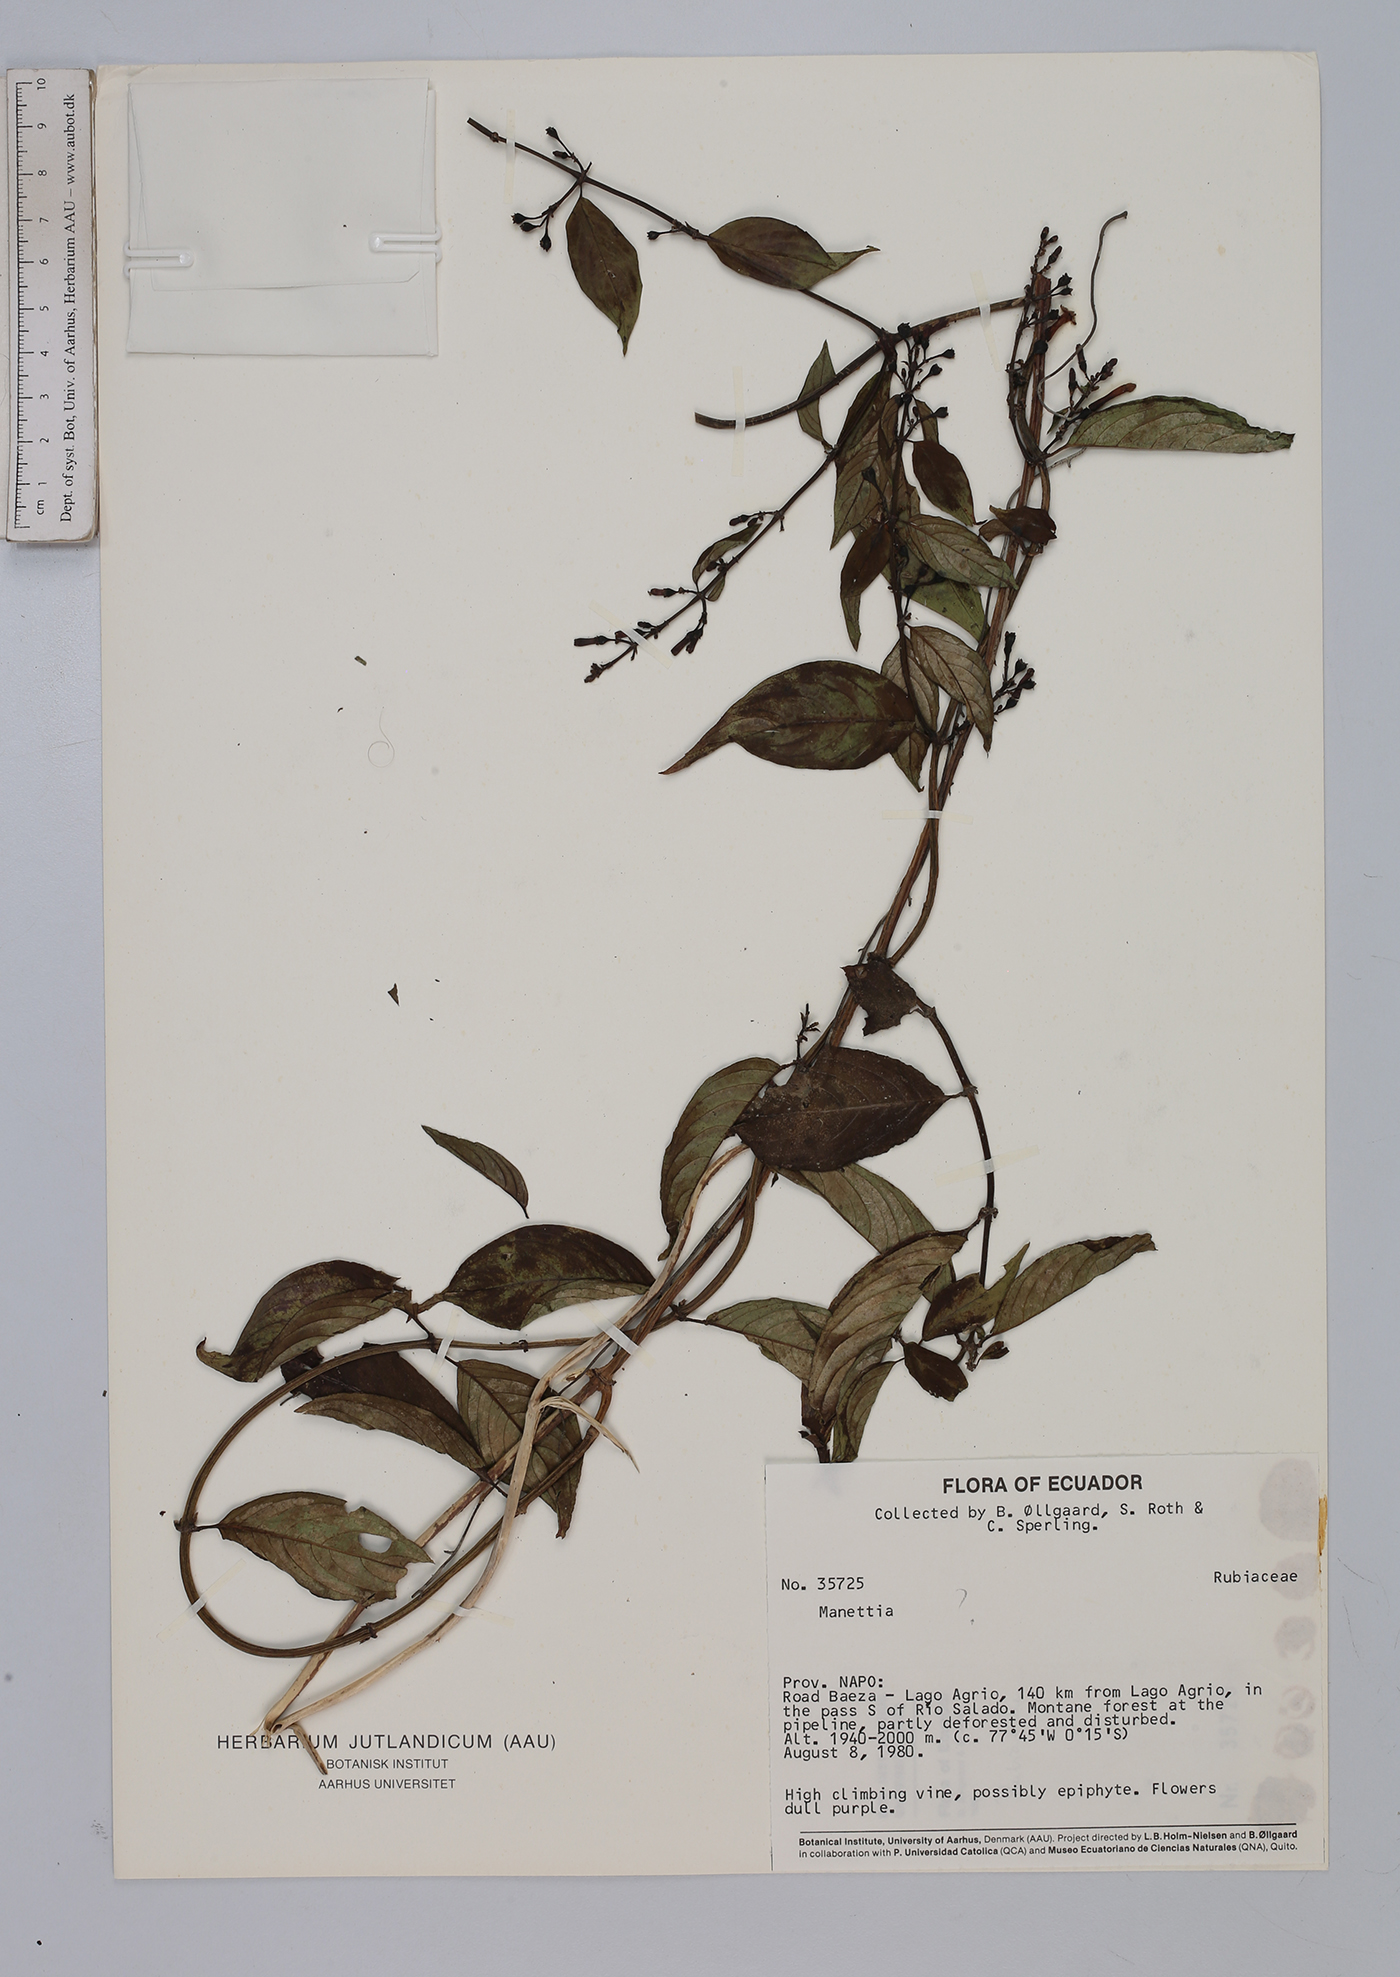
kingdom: Plantae
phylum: Tracheophyta
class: Magnoliopsida
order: Gentianales
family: Rubiaceae
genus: Manettia
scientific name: Manettia
